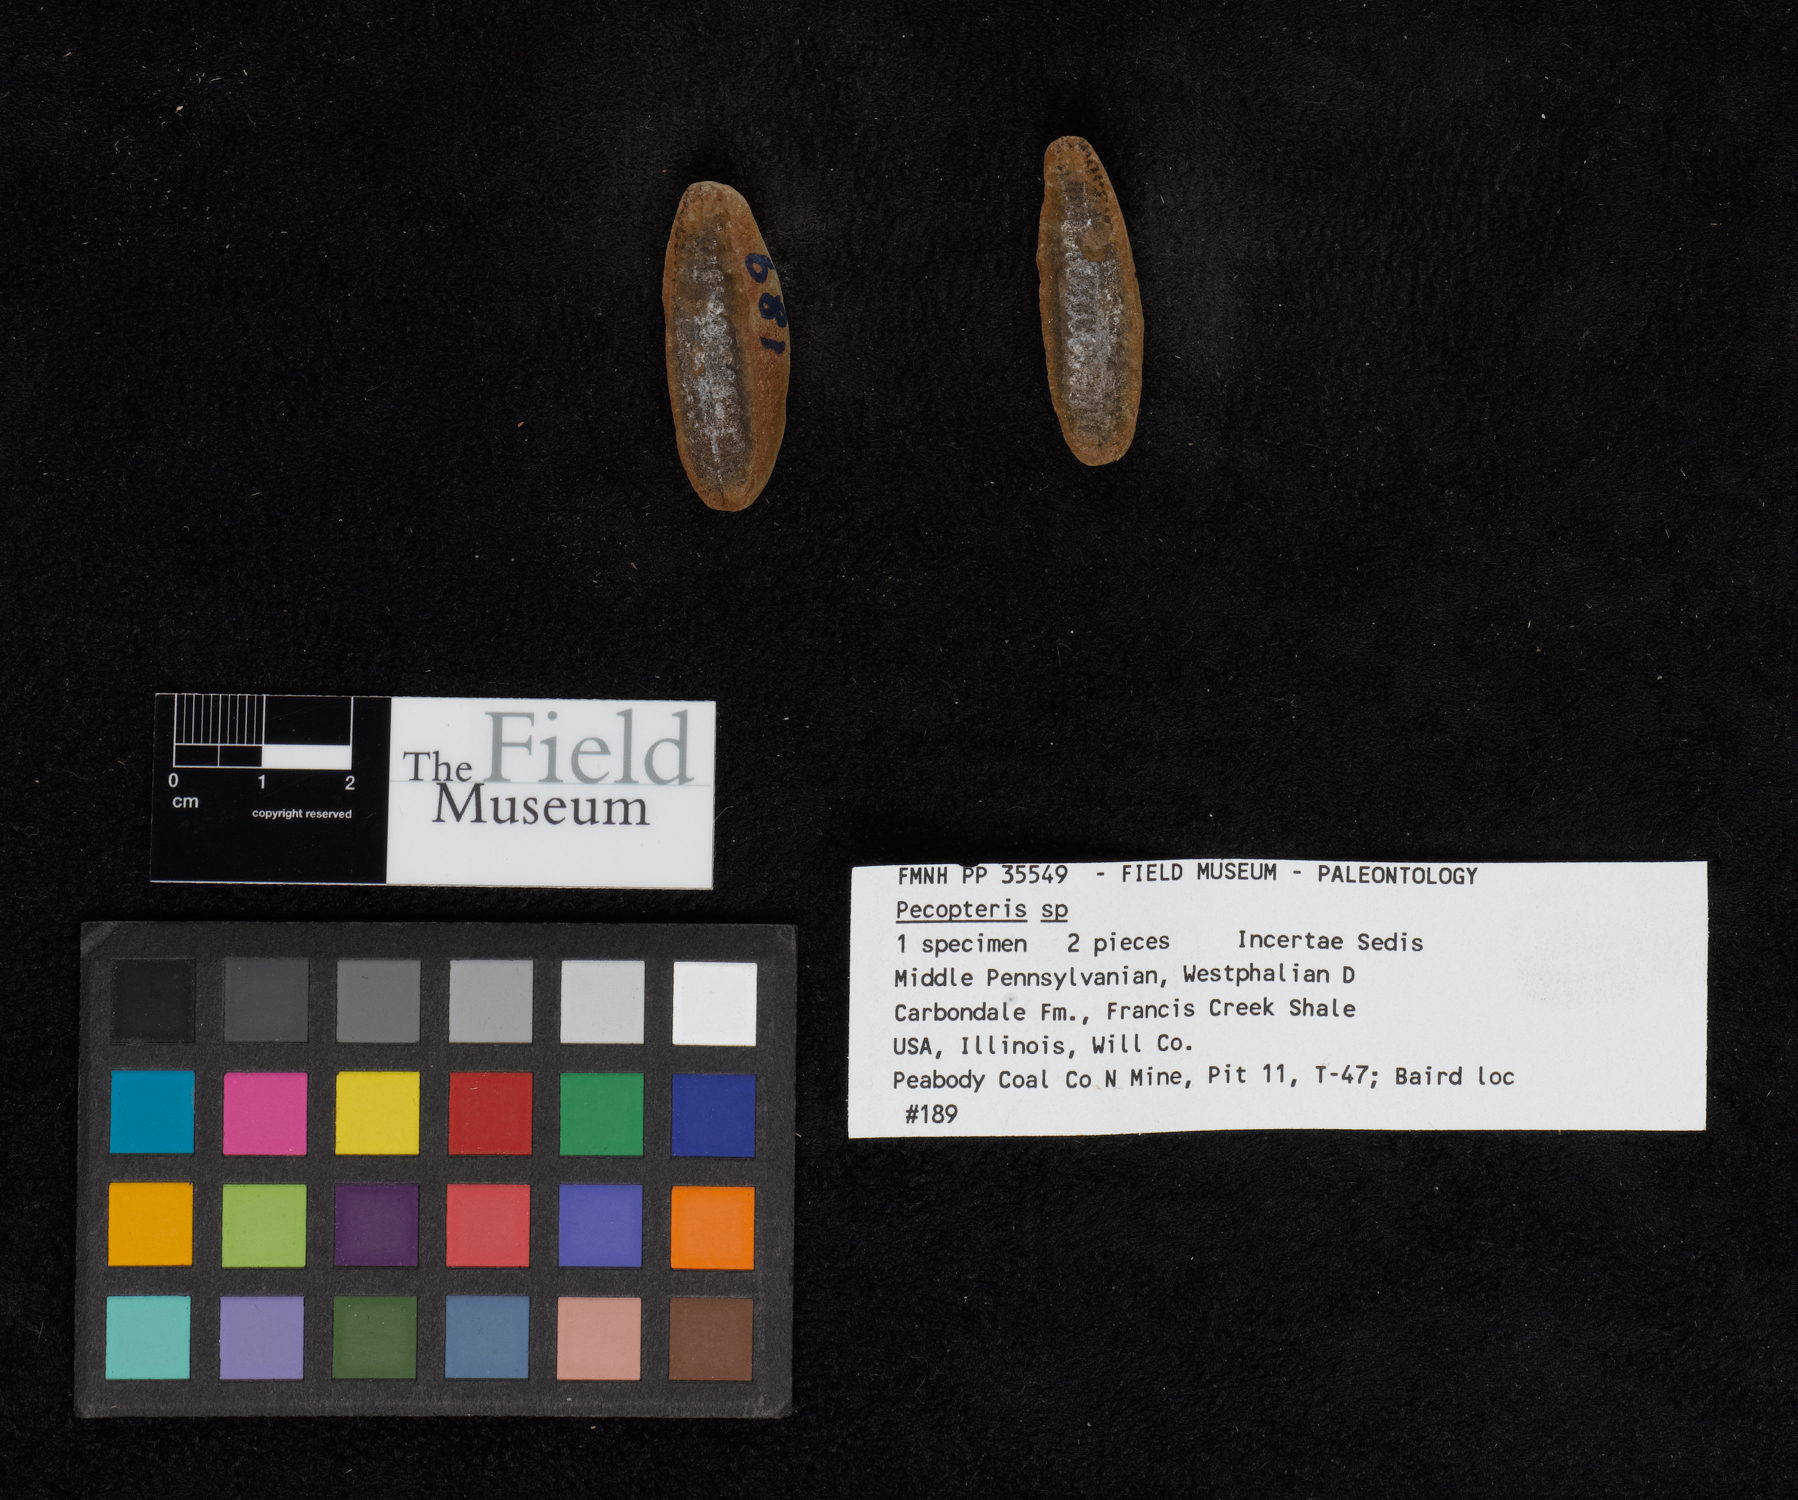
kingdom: Plantae
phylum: Tracheophyta
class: Polypodiopsida
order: Marattiales
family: Asterothecaceae
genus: Pecopteris
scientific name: Pecopteris
